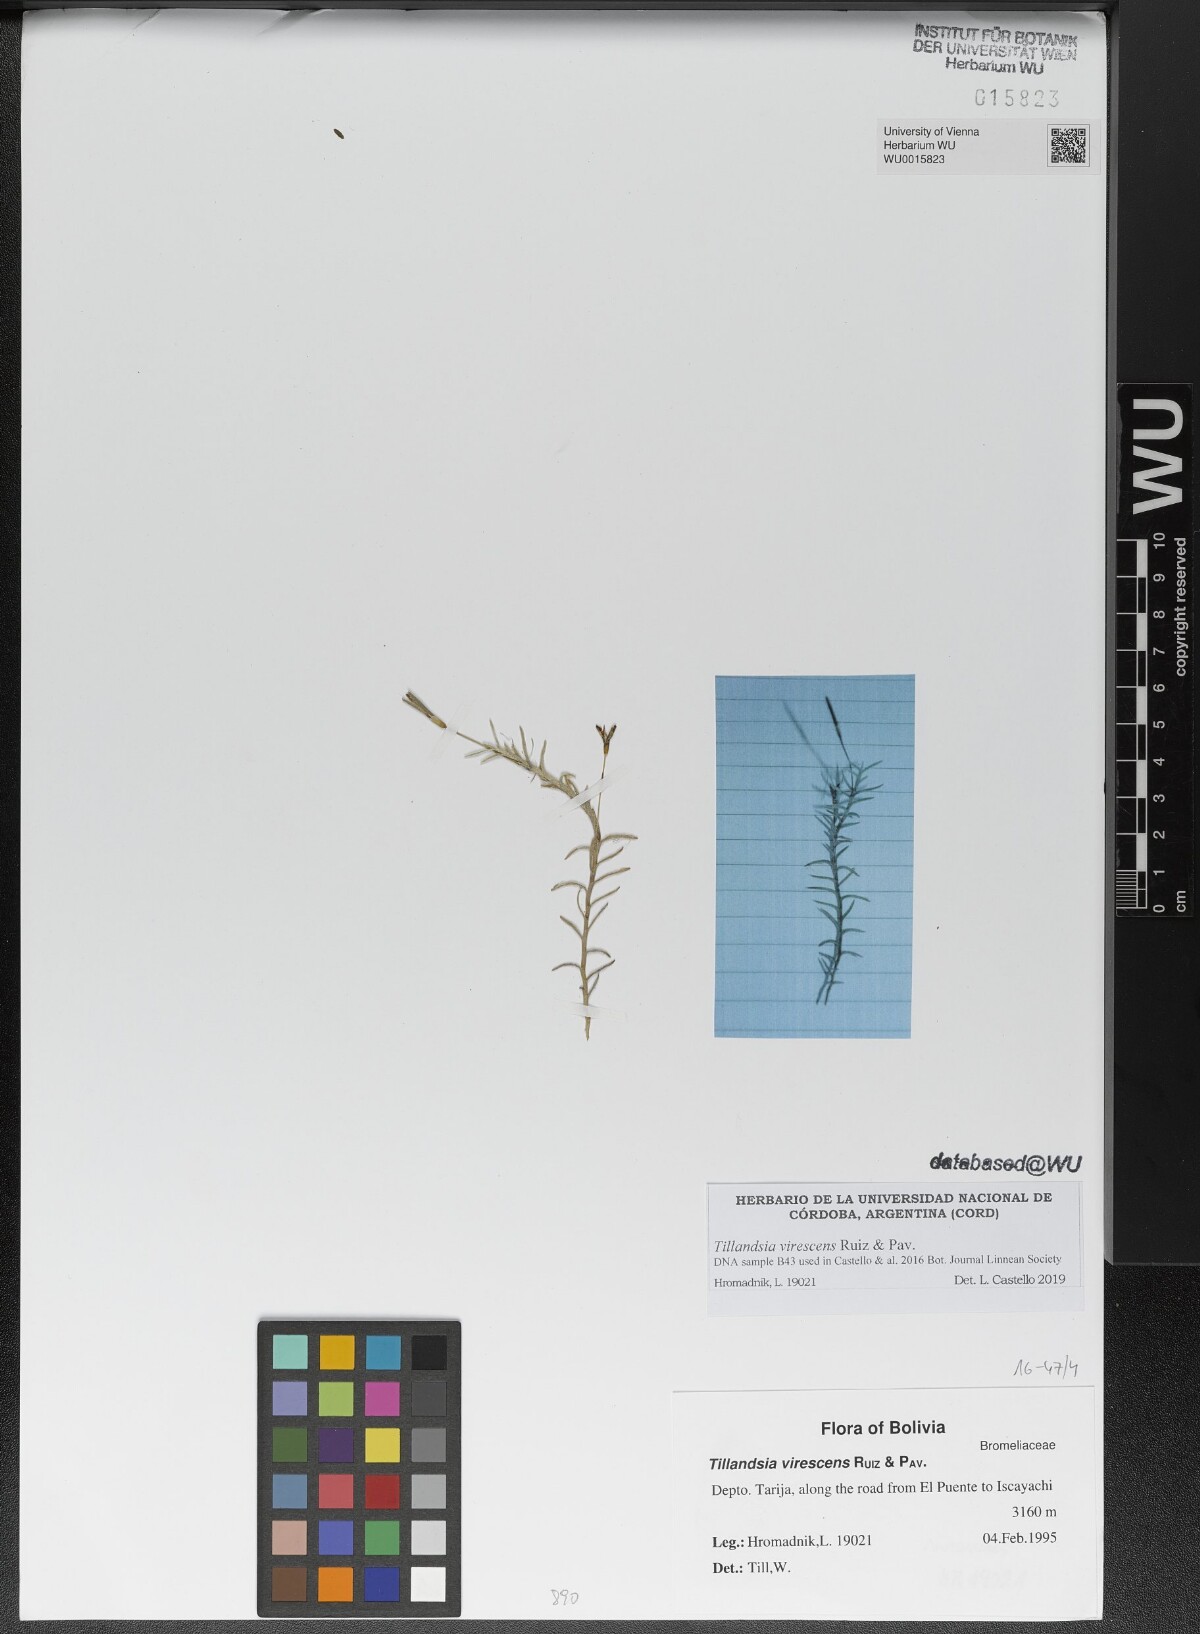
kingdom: Plantae
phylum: Tracheophyta
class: Liliopsida
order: Poales
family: Bromeliaceae
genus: Tillandsia
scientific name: Tillandsia virescens
